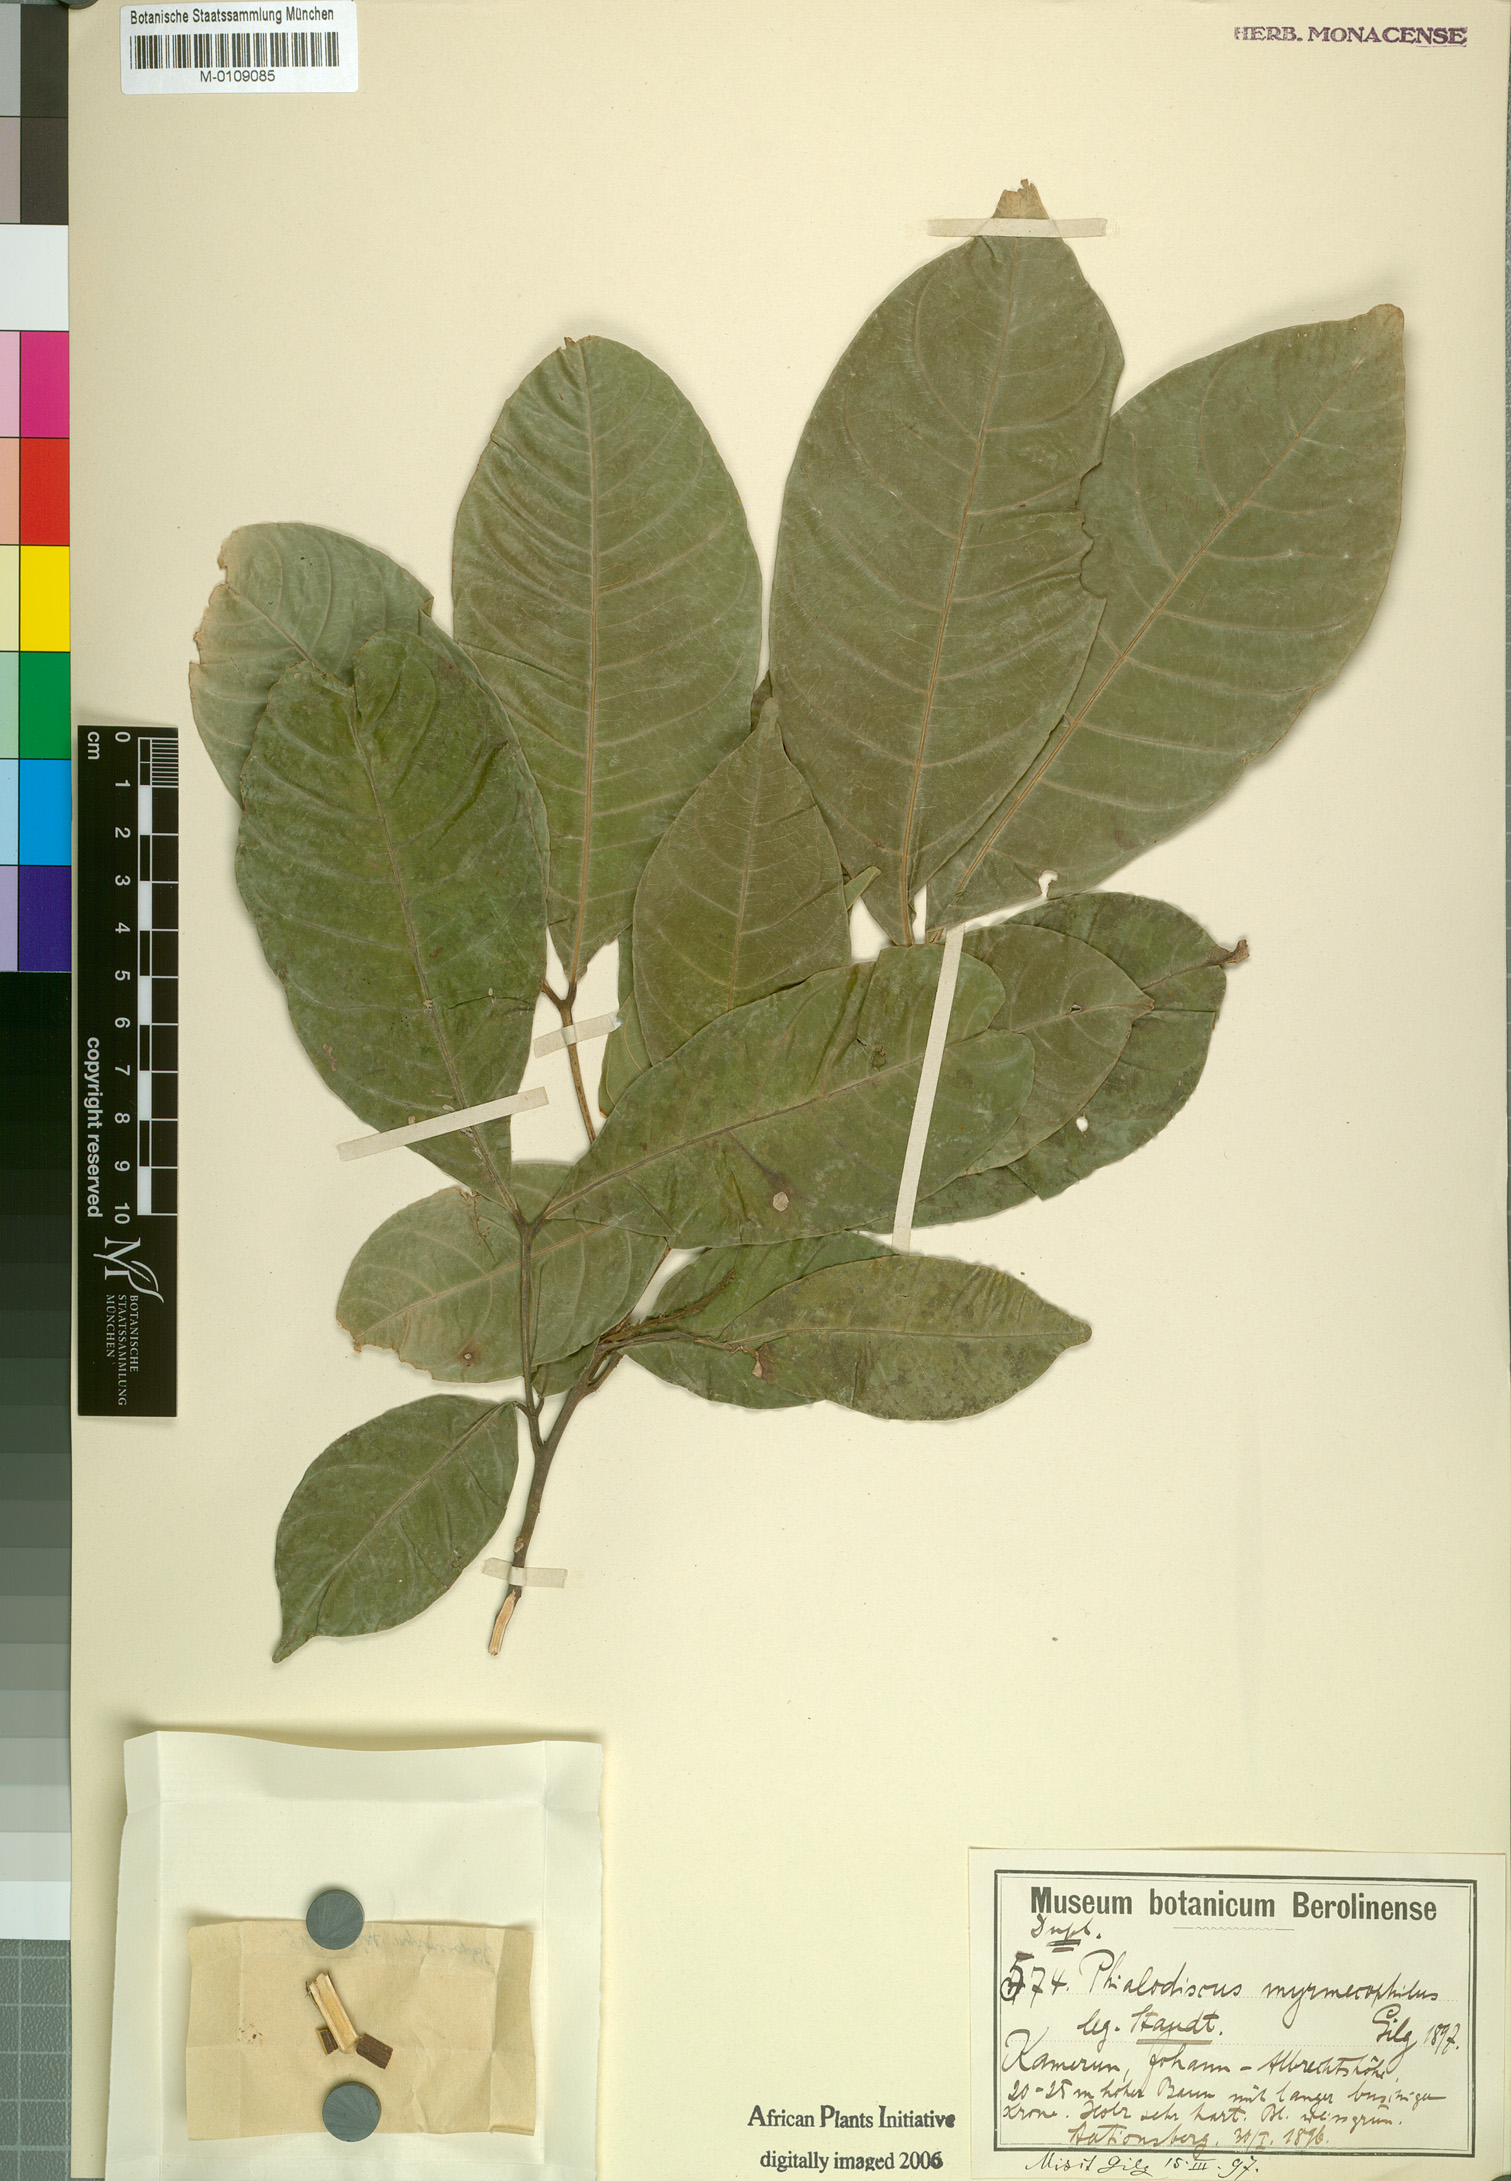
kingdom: Plantae
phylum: Tracheophyta
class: Magnoliopsida
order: Sapindales
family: Sapindaceae
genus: Blighia
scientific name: Blighia
